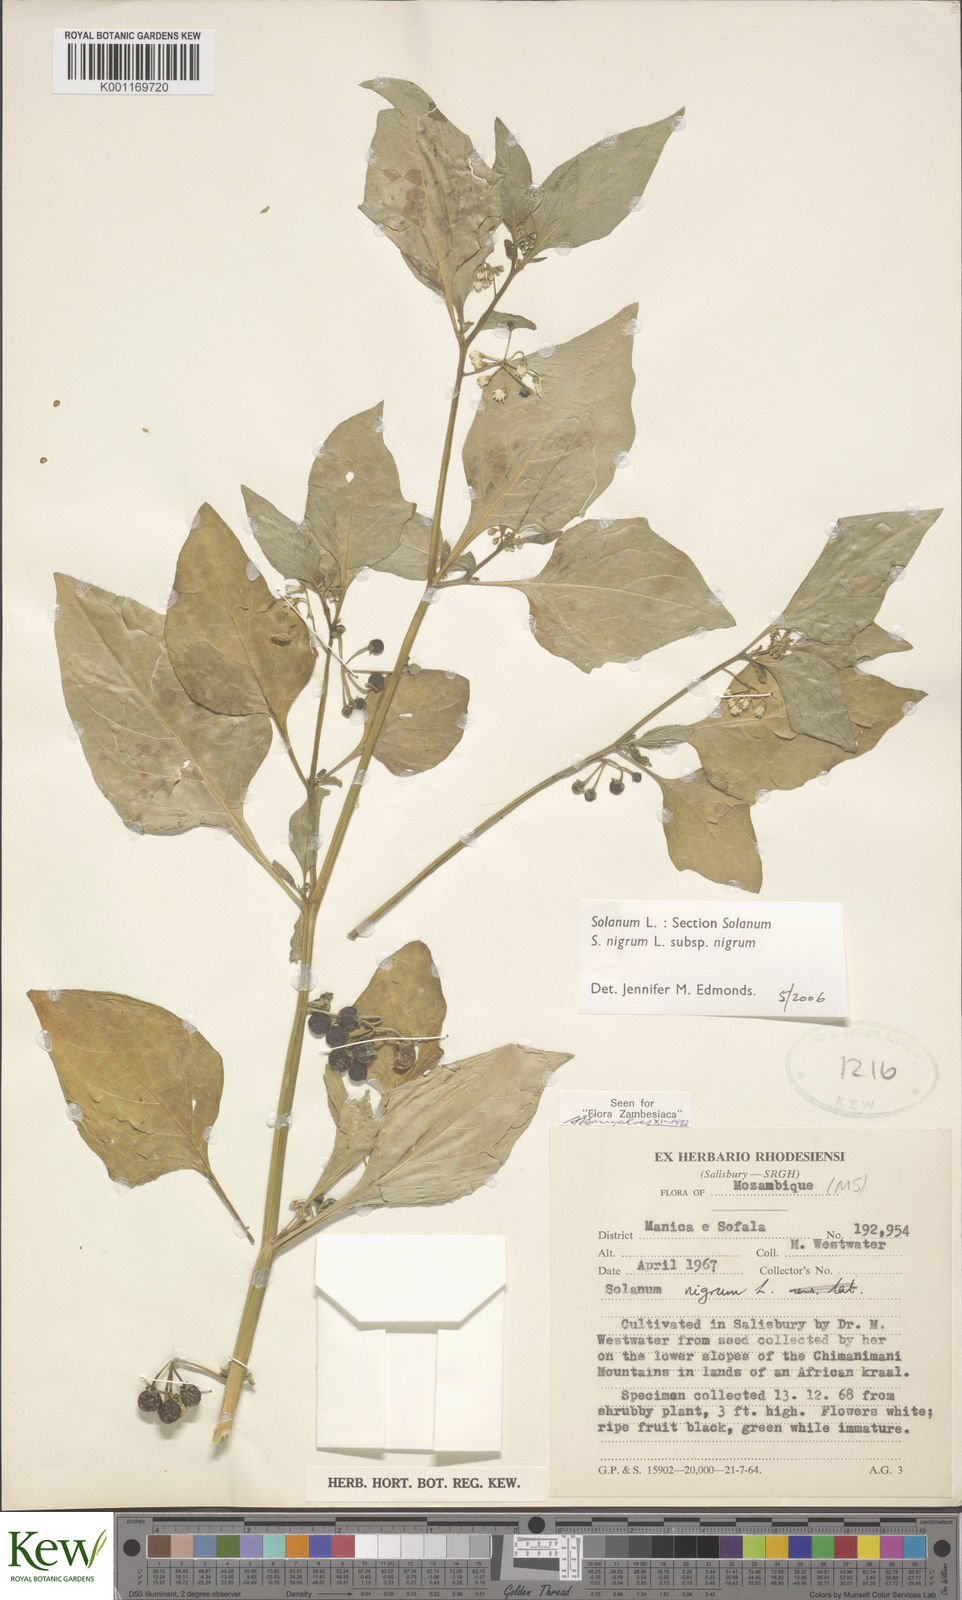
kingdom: Plantae
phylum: Tracheophyta
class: Magnoliopsida
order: Solanales
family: Solanaceae
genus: Solanum
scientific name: Solanum
